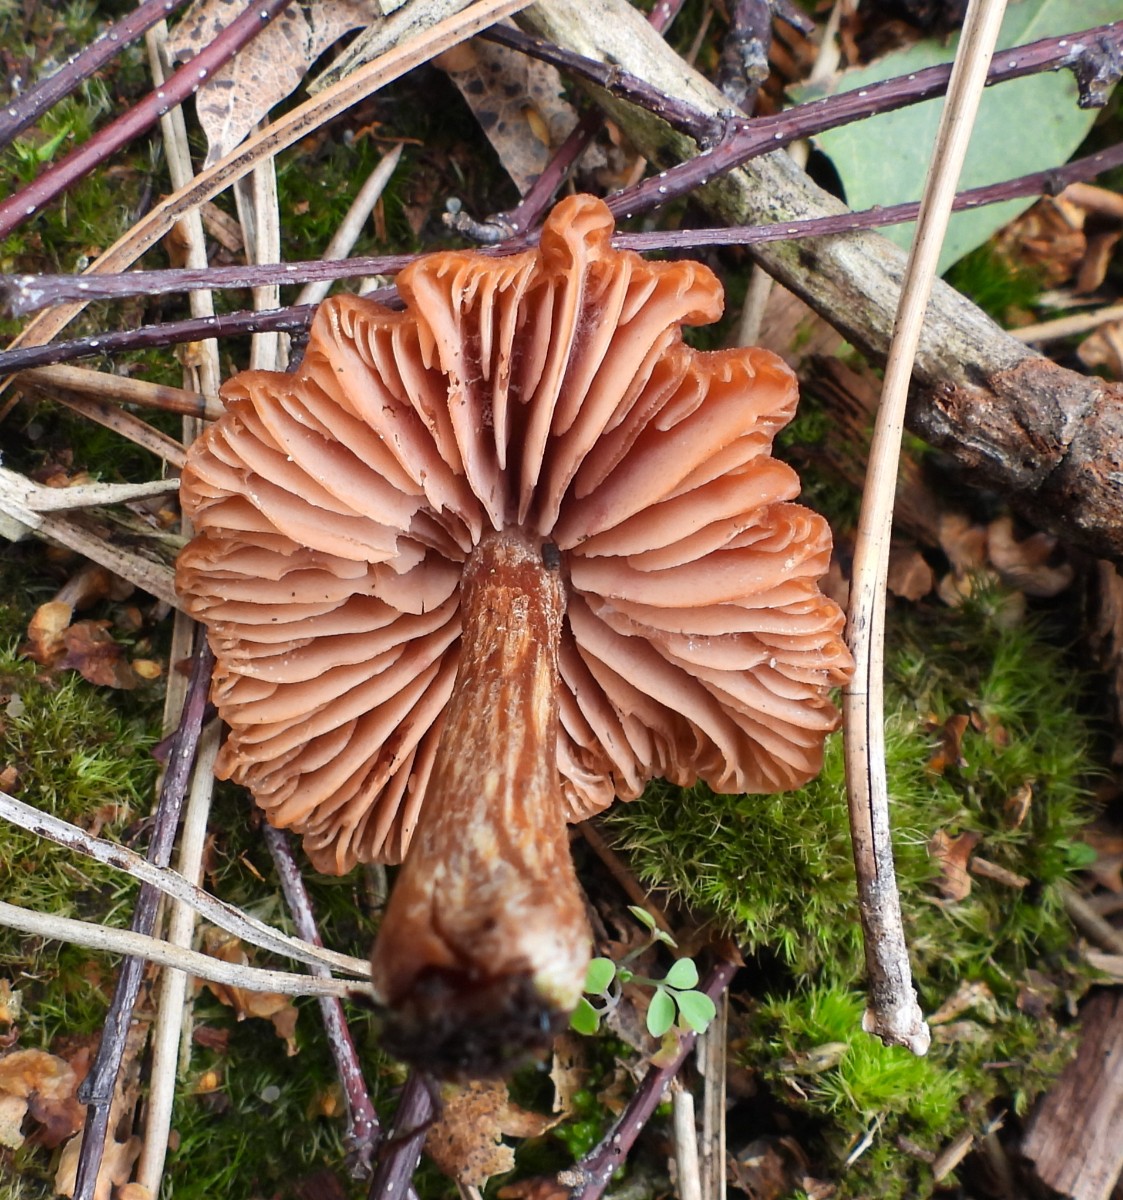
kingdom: Fungi
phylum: Basidiomycota
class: Agaricomycetes
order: Agaricales
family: Hydnangiaceae
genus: Laccaria
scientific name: Laccaria proxima
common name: stor ametysthat
